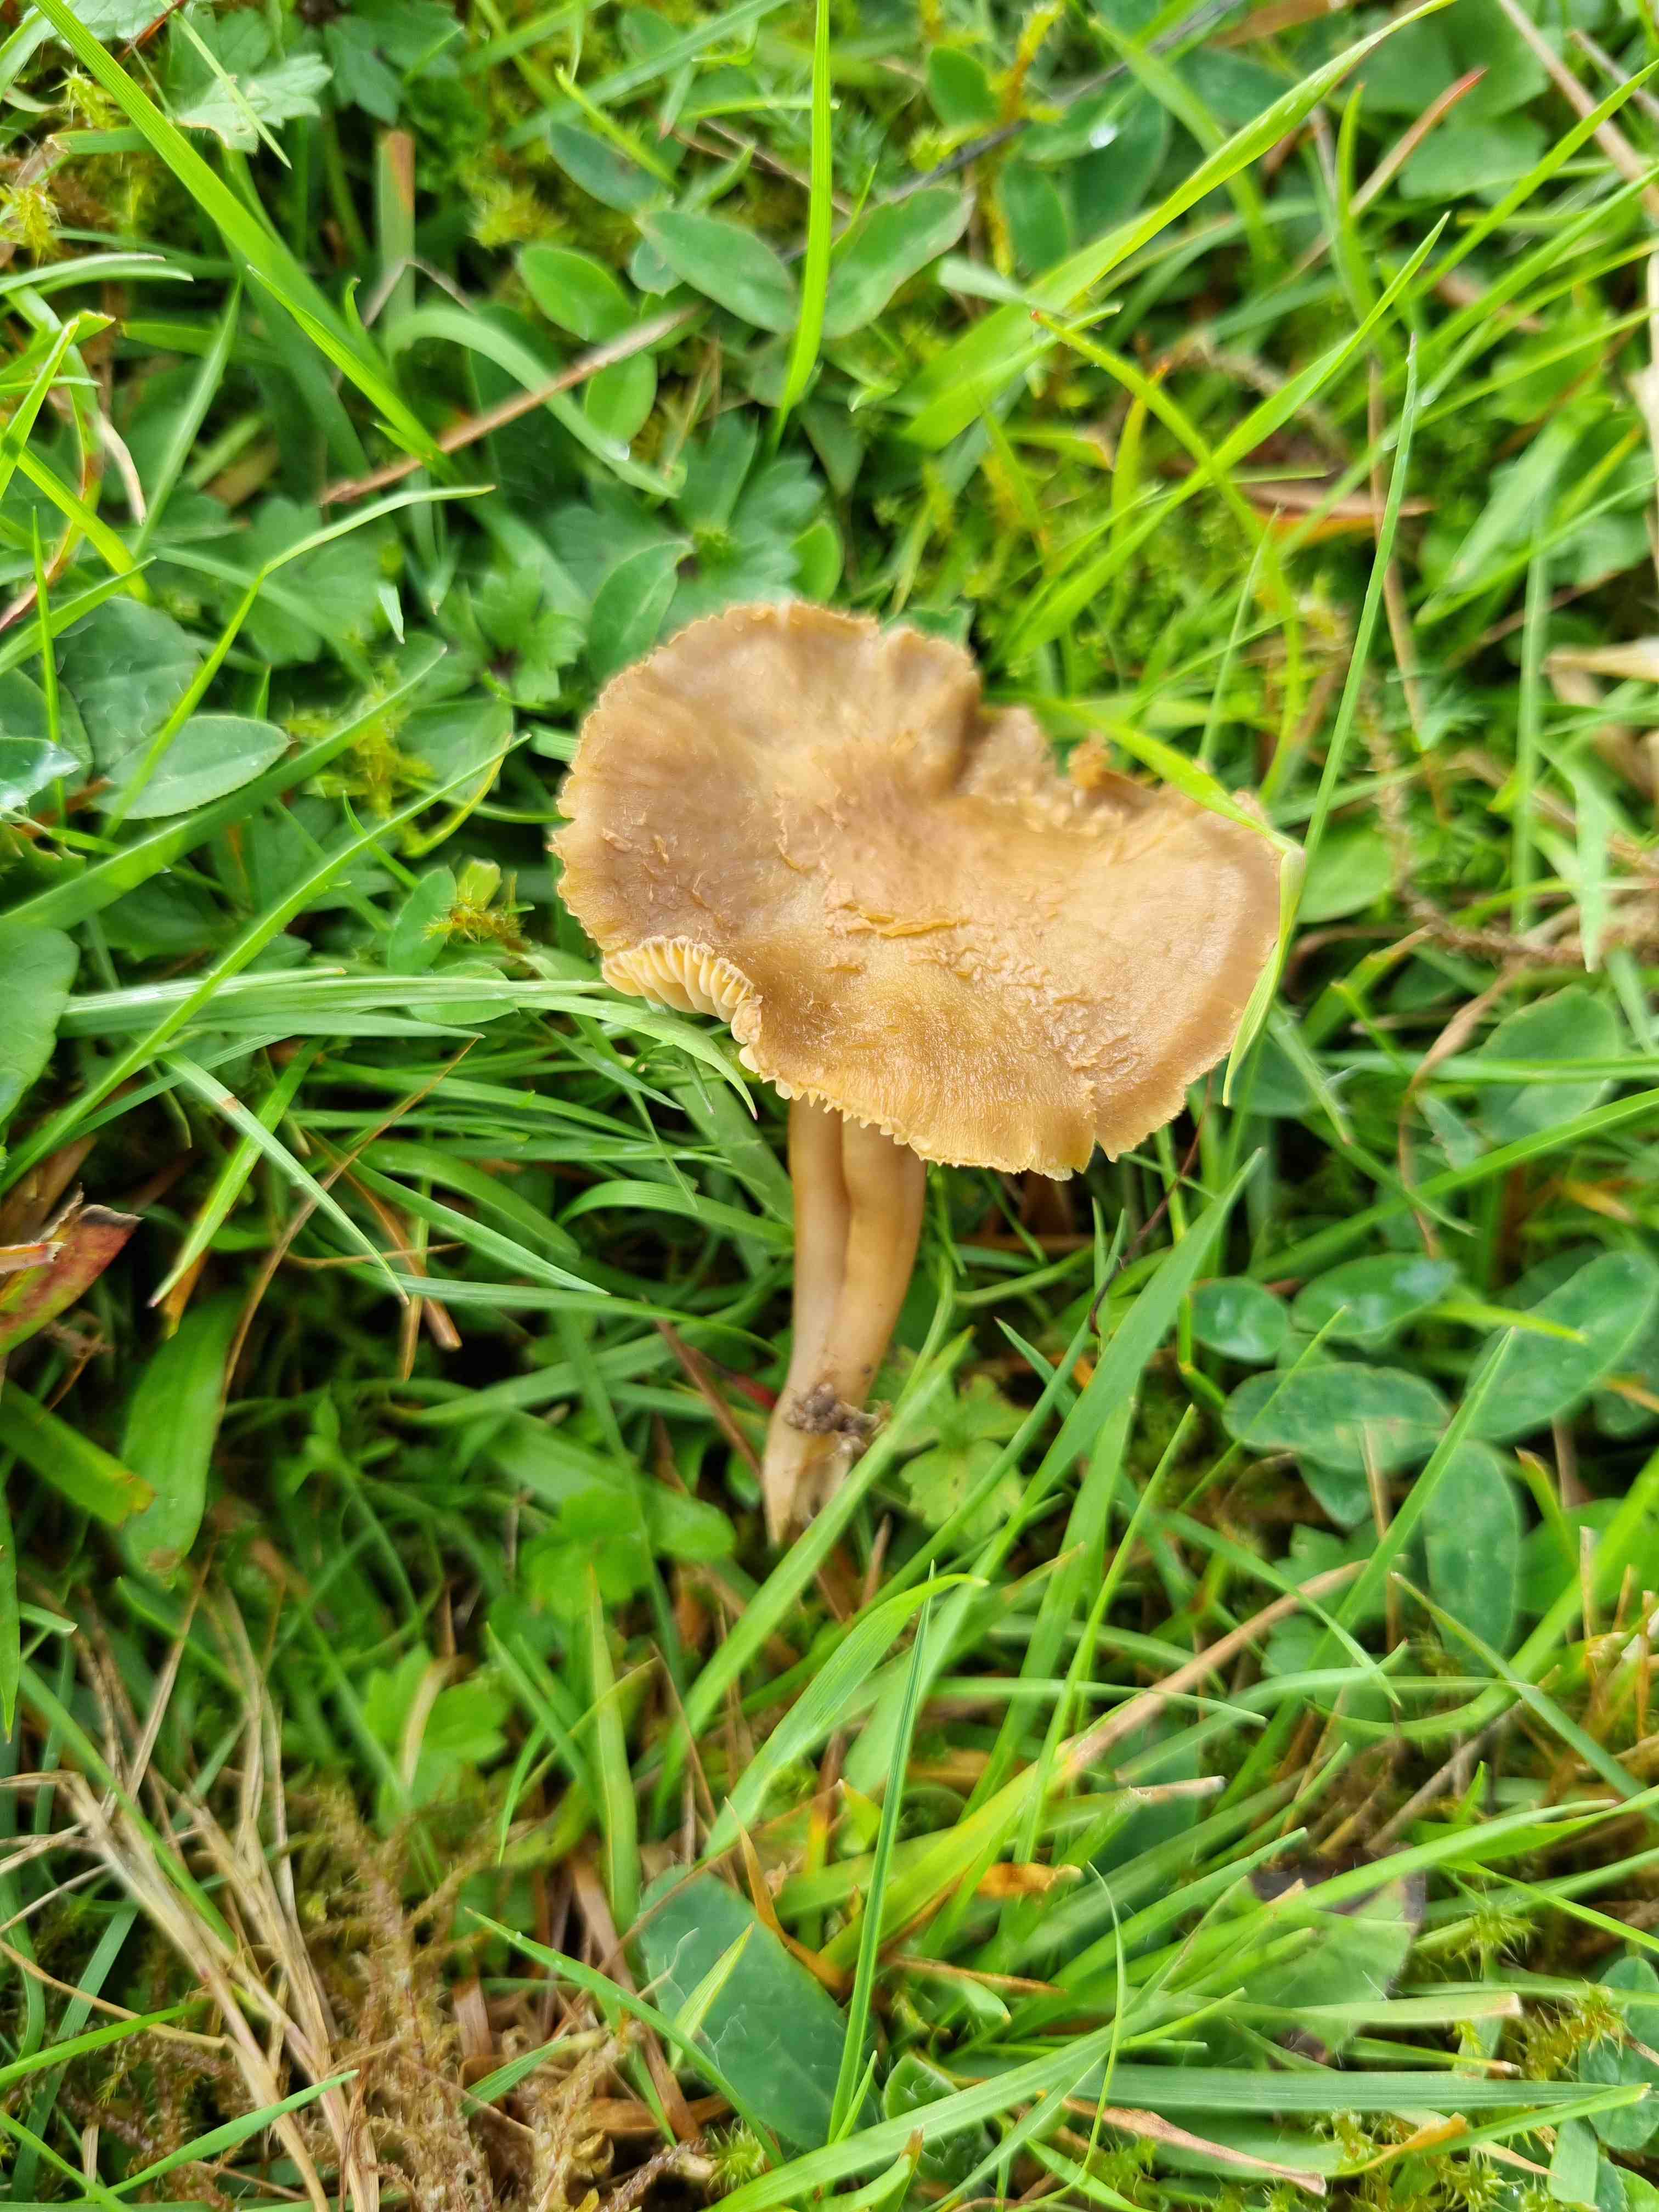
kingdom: Fungi
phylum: Basidiomycota
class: Agaricomycetes
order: Agaricales
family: Clavariaceae
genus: Camarophyllopsis
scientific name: Camarophyllopsis schulzeri
